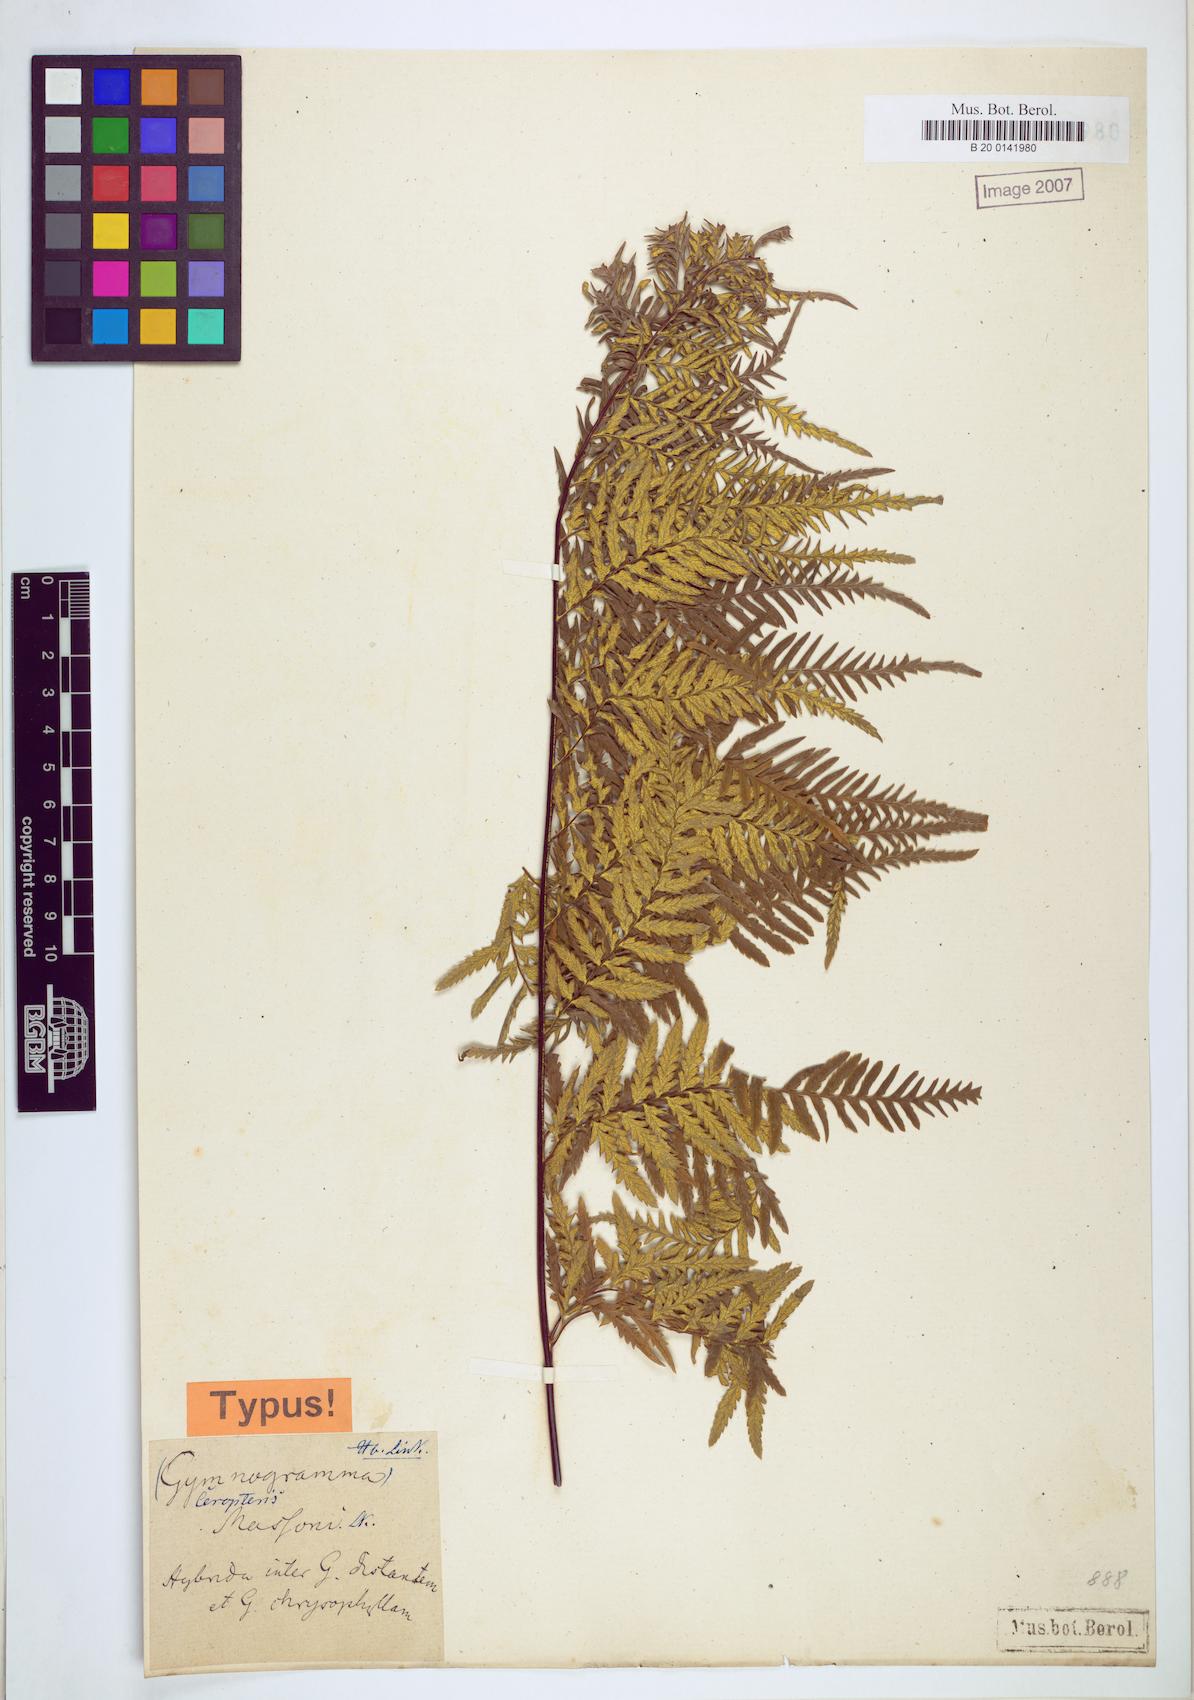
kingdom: Plantae
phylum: Tracheophyta
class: Polypodiopsida
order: Polypodiales
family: Pteridaceae
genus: Pityrogramma
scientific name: Pityrogramma
